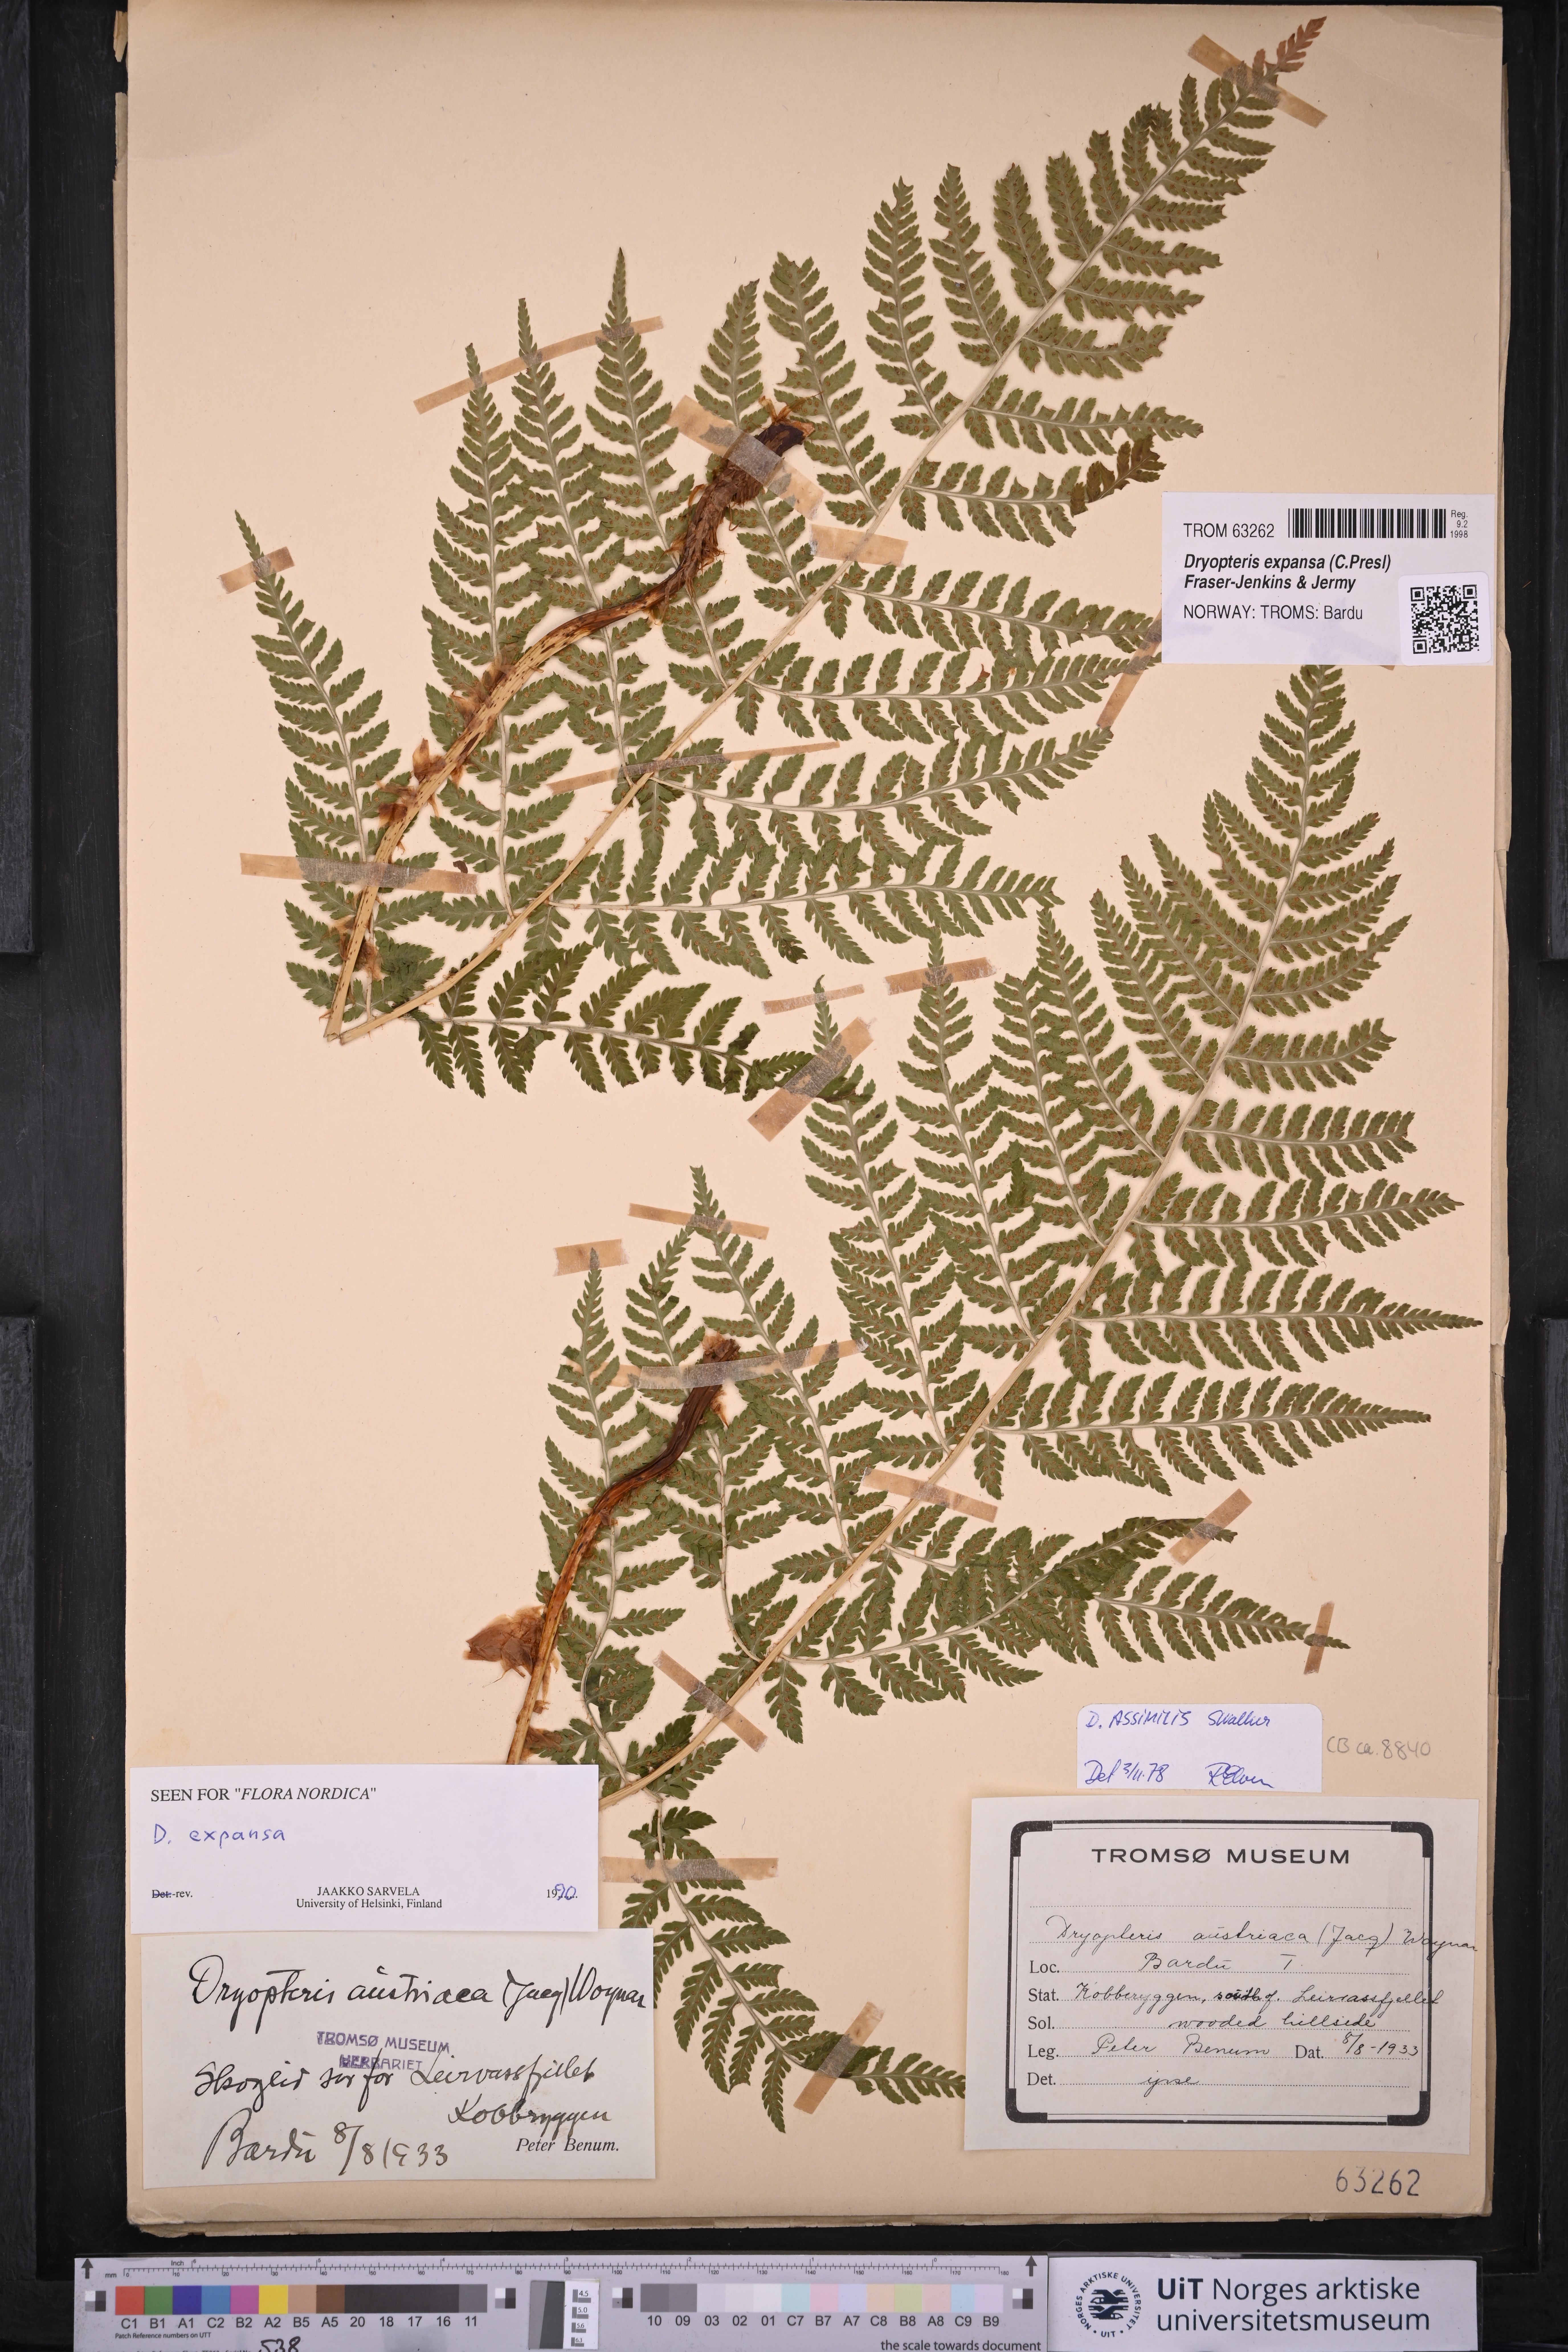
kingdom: Plantae
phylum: Tracheophyta
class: Polypodiopsida
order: Polypodiales
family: Dryopteridaceae
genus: Dryopteris
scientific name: Dryopteris expansa
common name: Northern buckler fern
